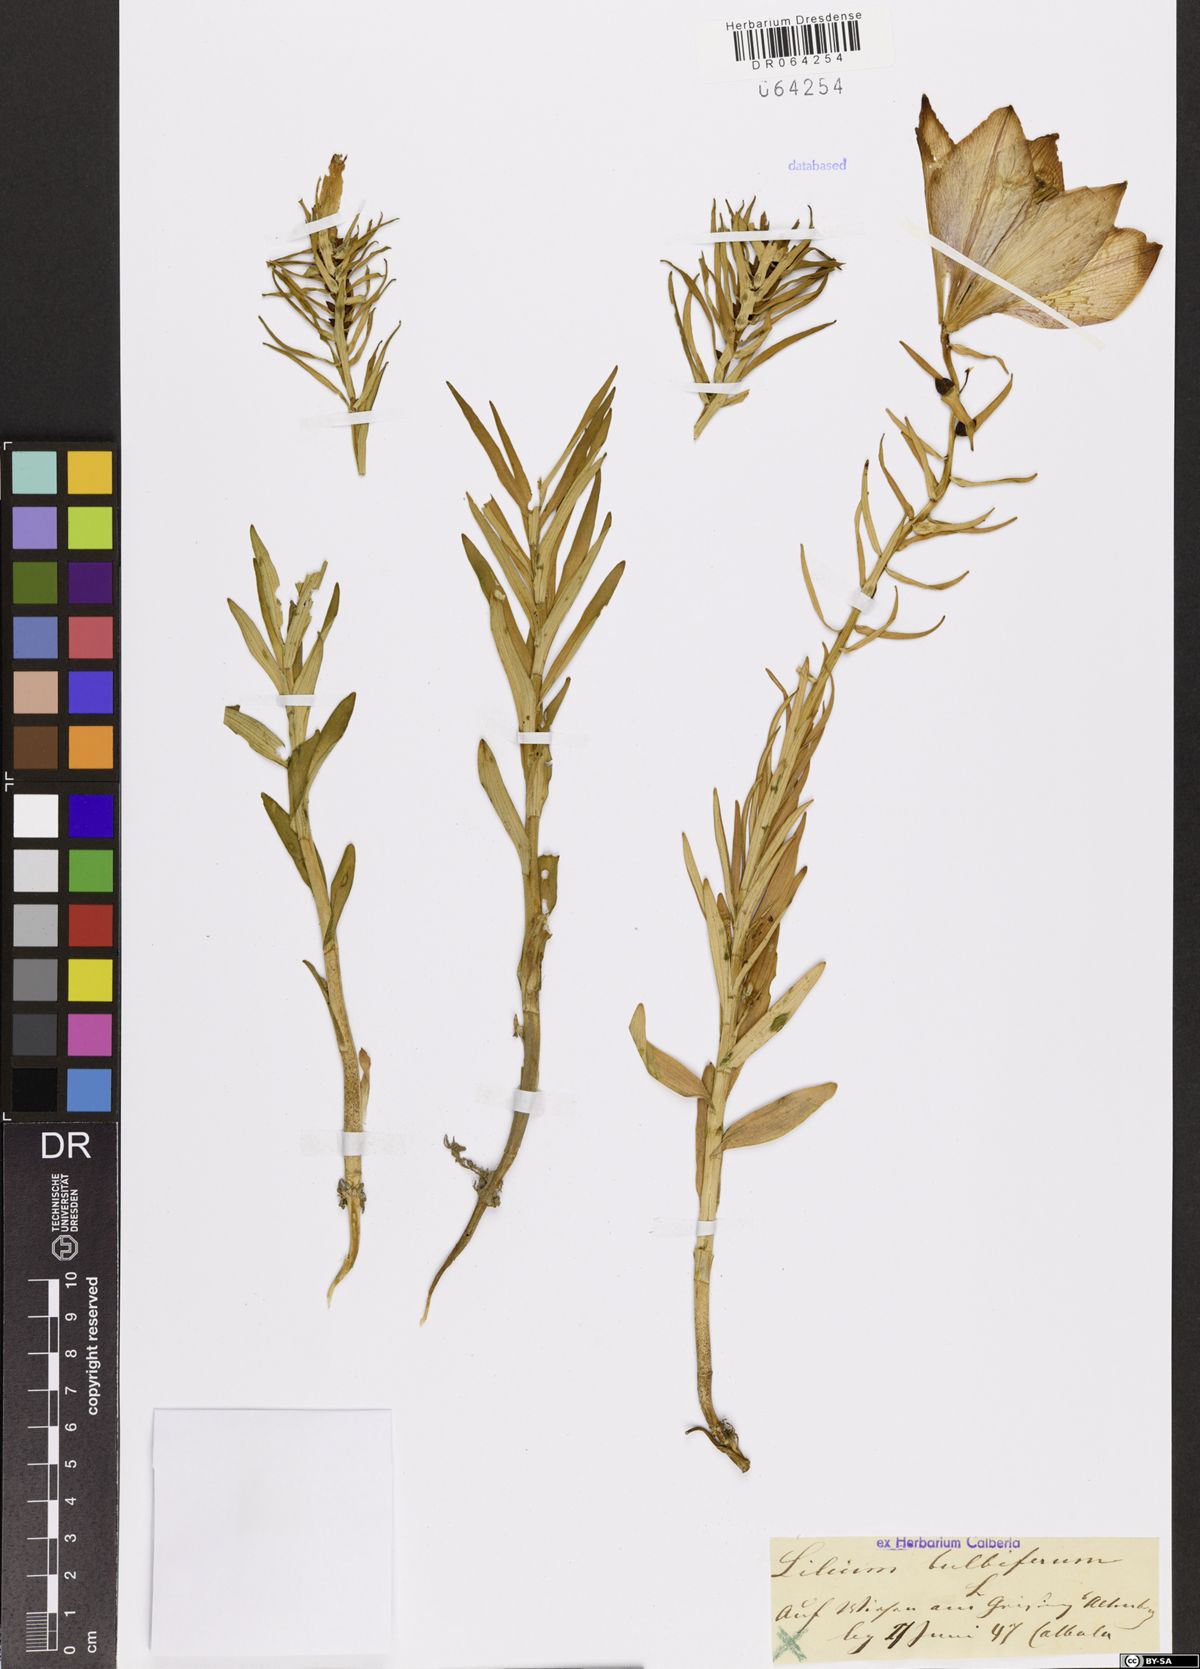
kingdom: Plantae
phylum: Tracheophyta
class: Liliopsida
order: Liliales
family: Liliaceae
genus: Lilium
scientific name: Lilium bulbiferum
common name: Orange lily
